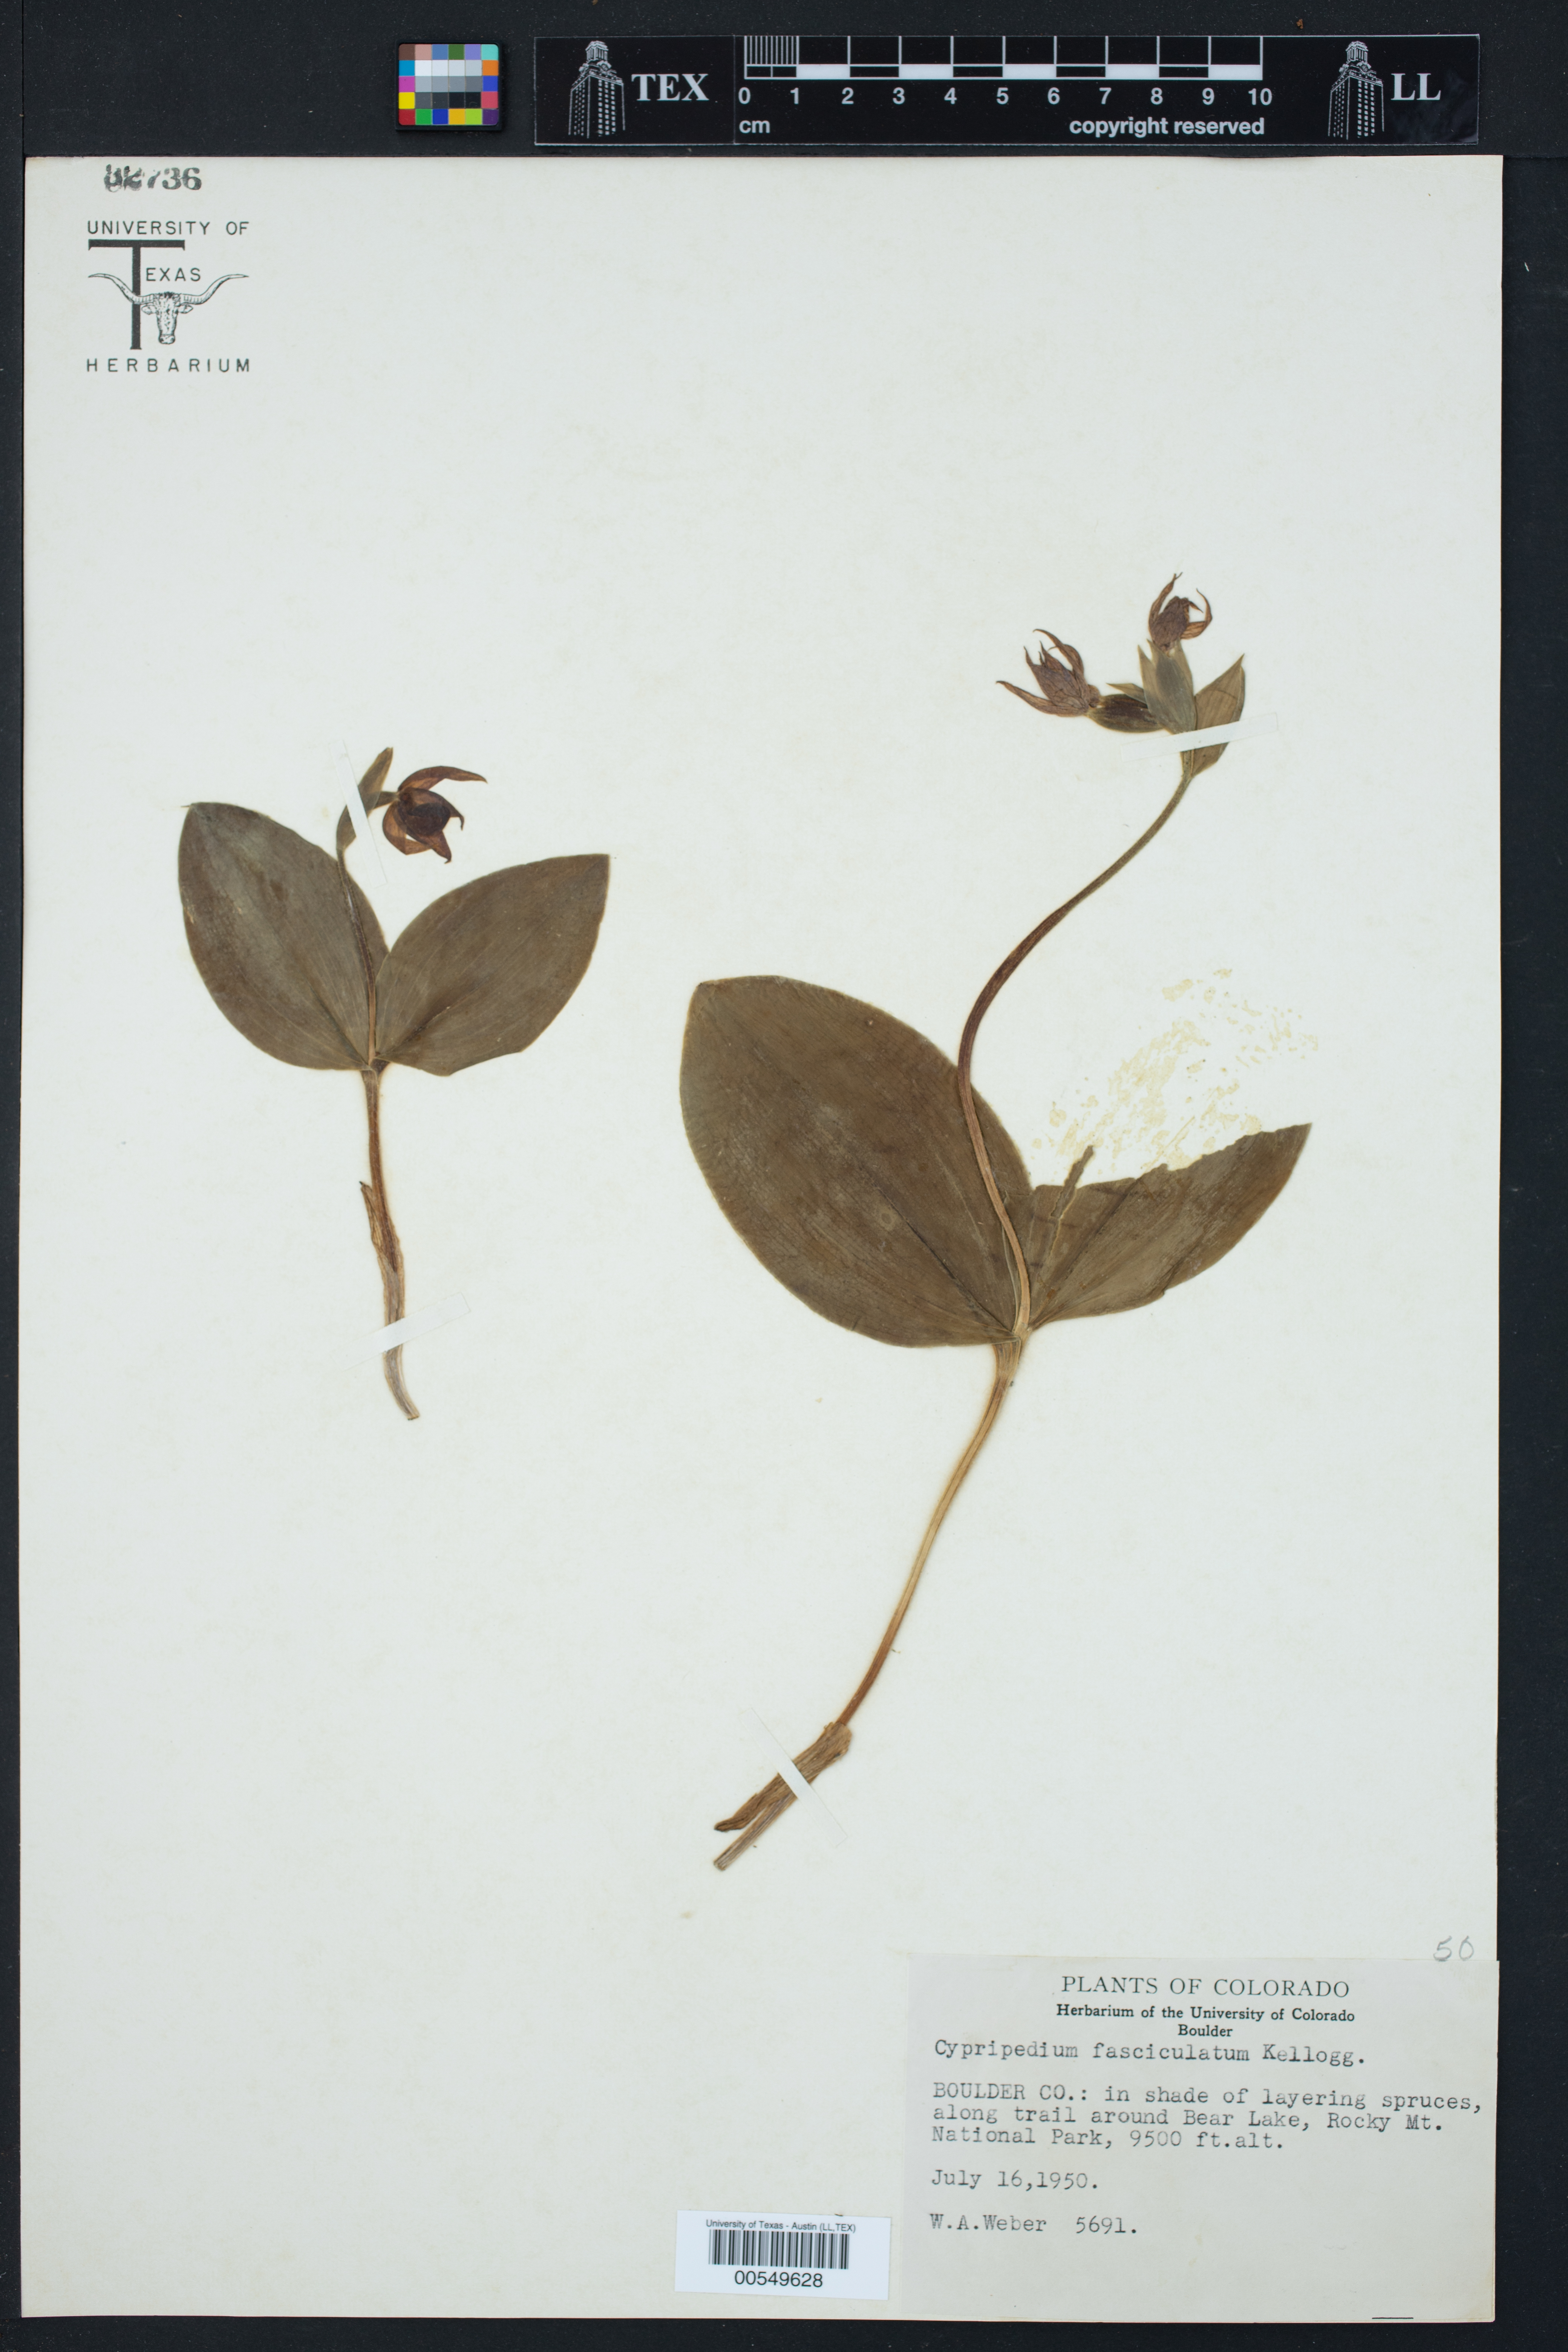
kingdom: Plantae
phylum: Tracheophyta
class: Liliopsida
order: Asparagales
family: Orchidaceae
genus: Cypripedium
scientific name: Cypripedium fasciculatum
